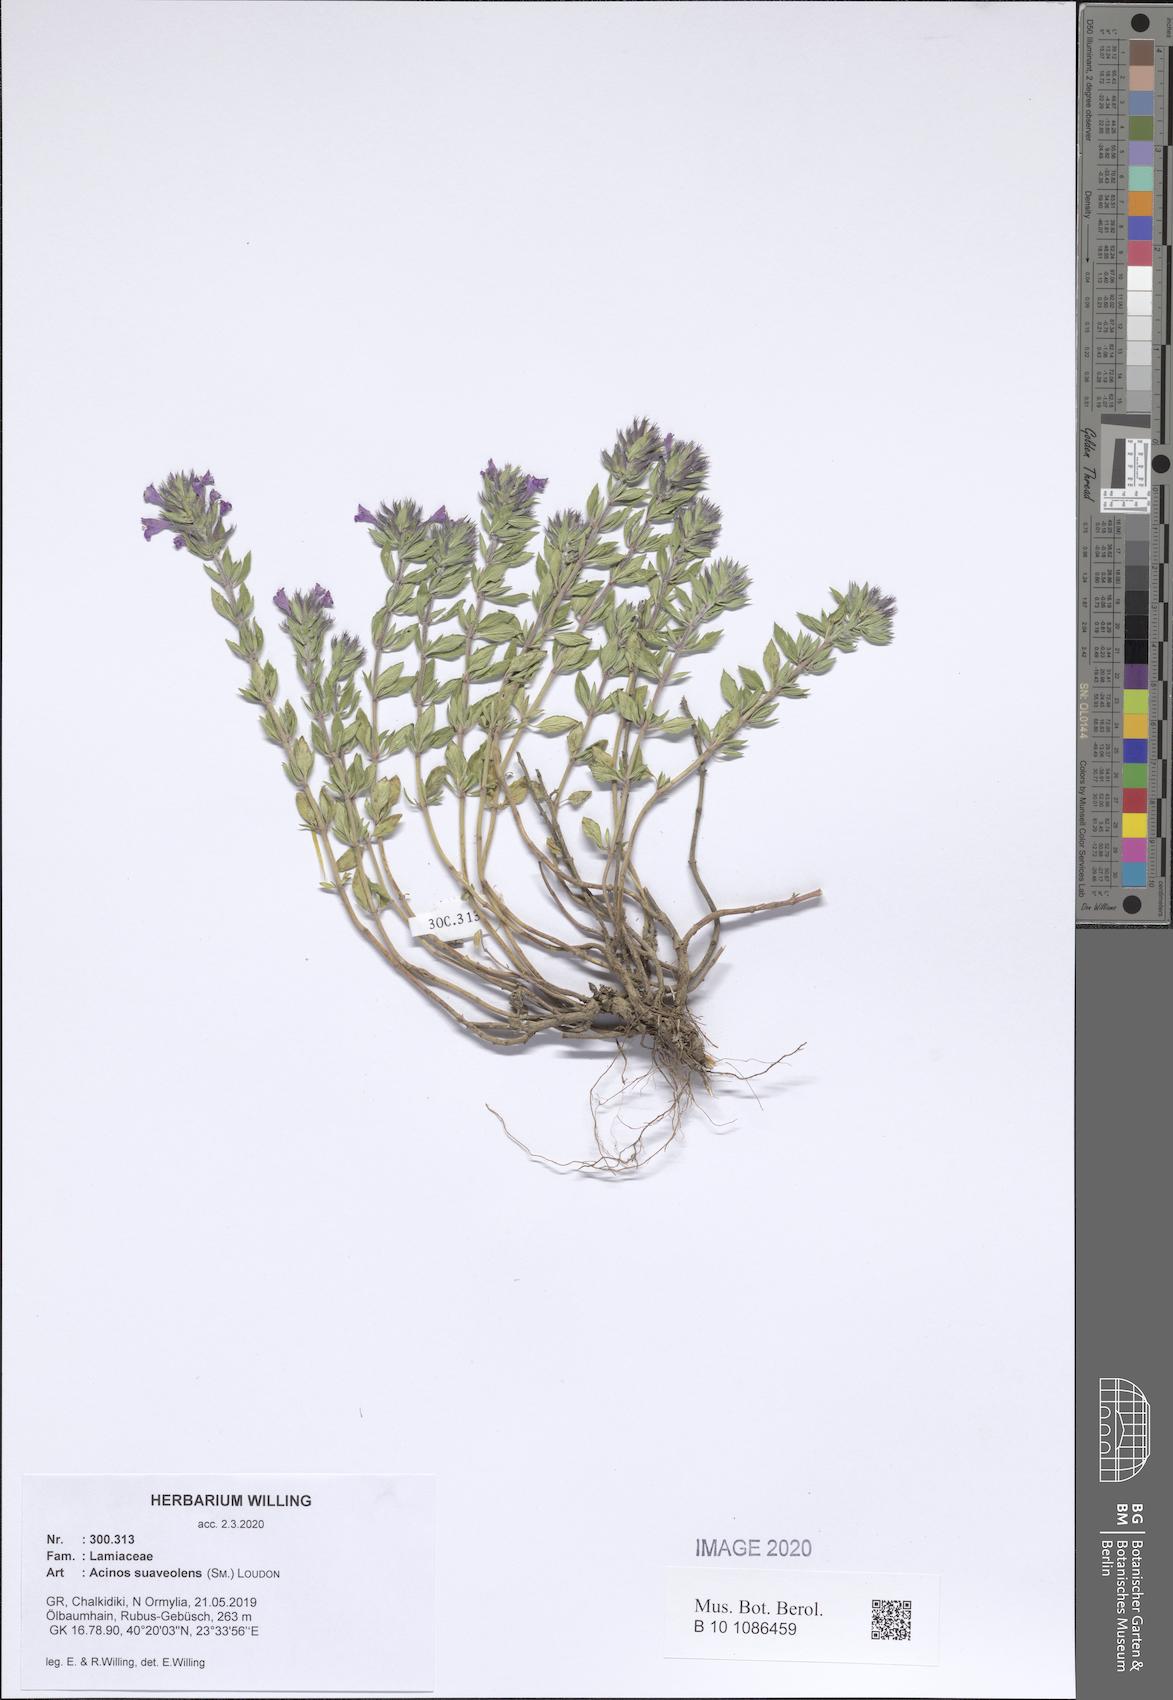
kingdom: Plantae
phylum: Tracheophyta
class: Magnoliopsida
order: Lamiales
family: Lamiaceae
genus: Clinopodium
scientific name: Clinopodium suaveolens
